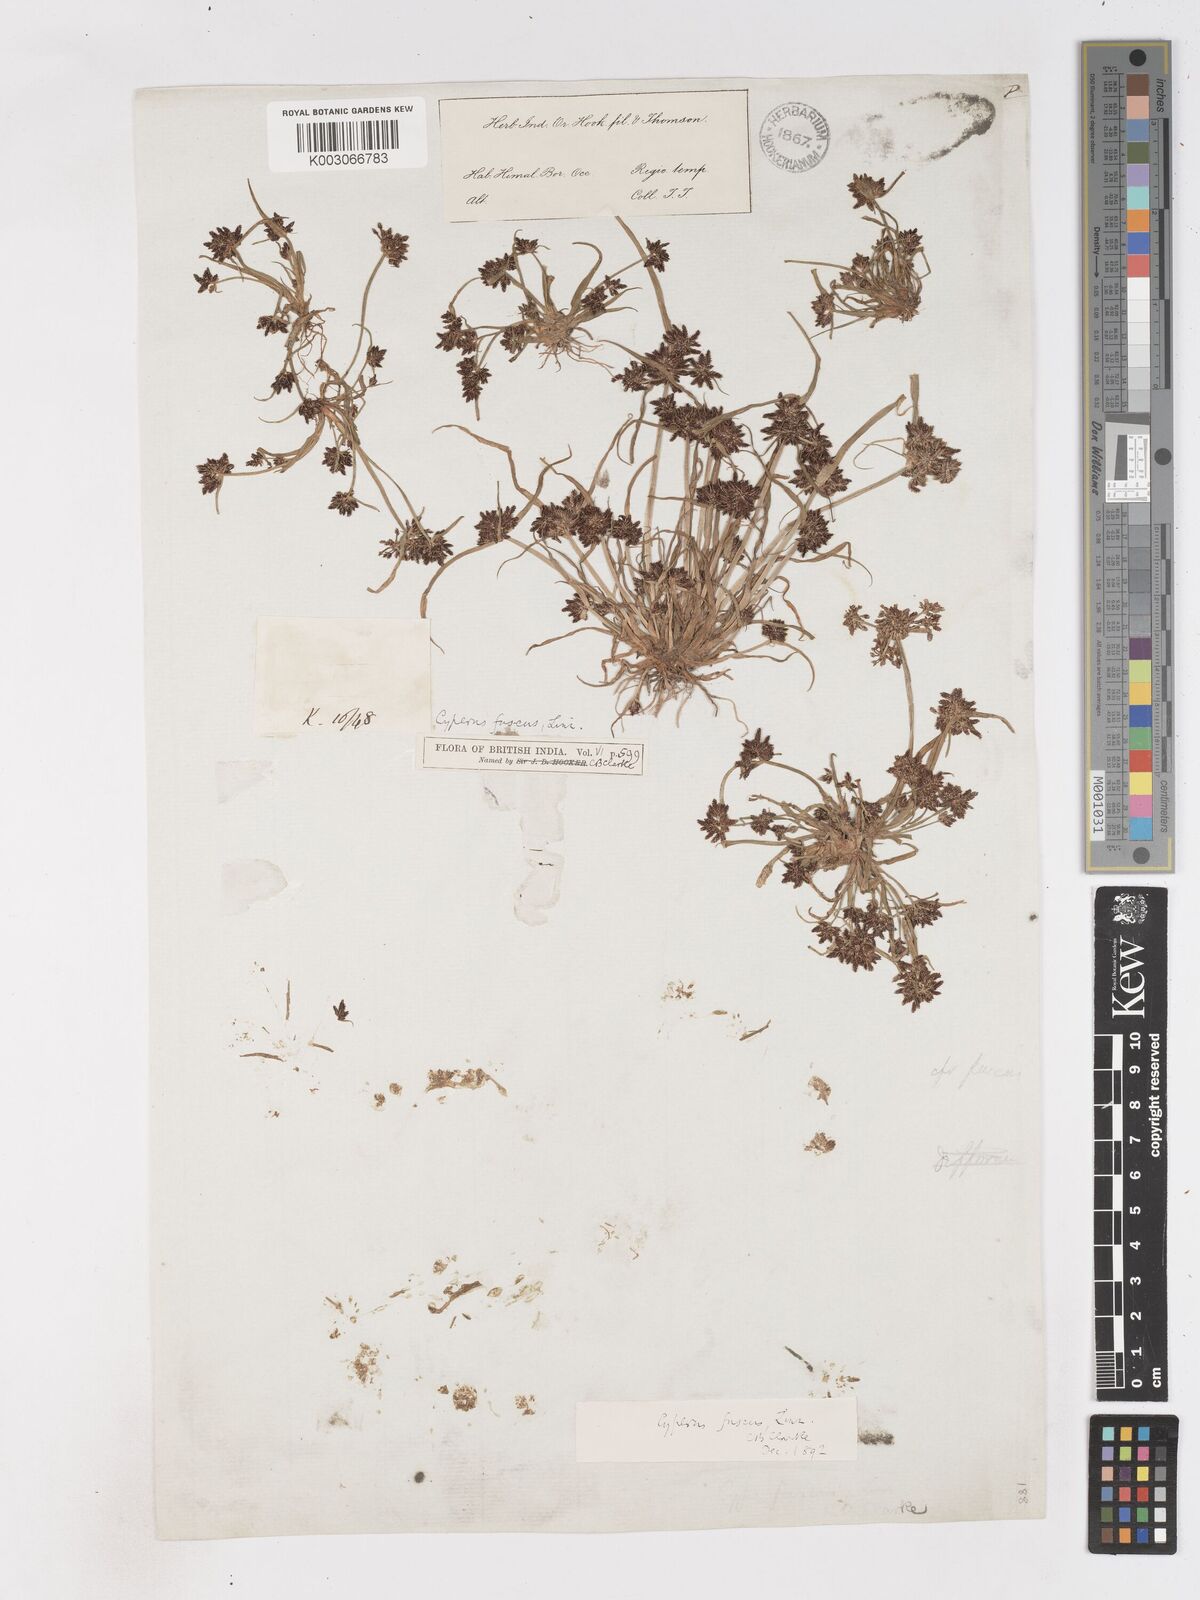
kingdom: Plantae
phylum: Tracheophyta
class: Liliopsida
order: Poales
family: Cyperaceae
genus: Cyperus
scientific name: Cyperus fuscus
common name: Brown galingale
